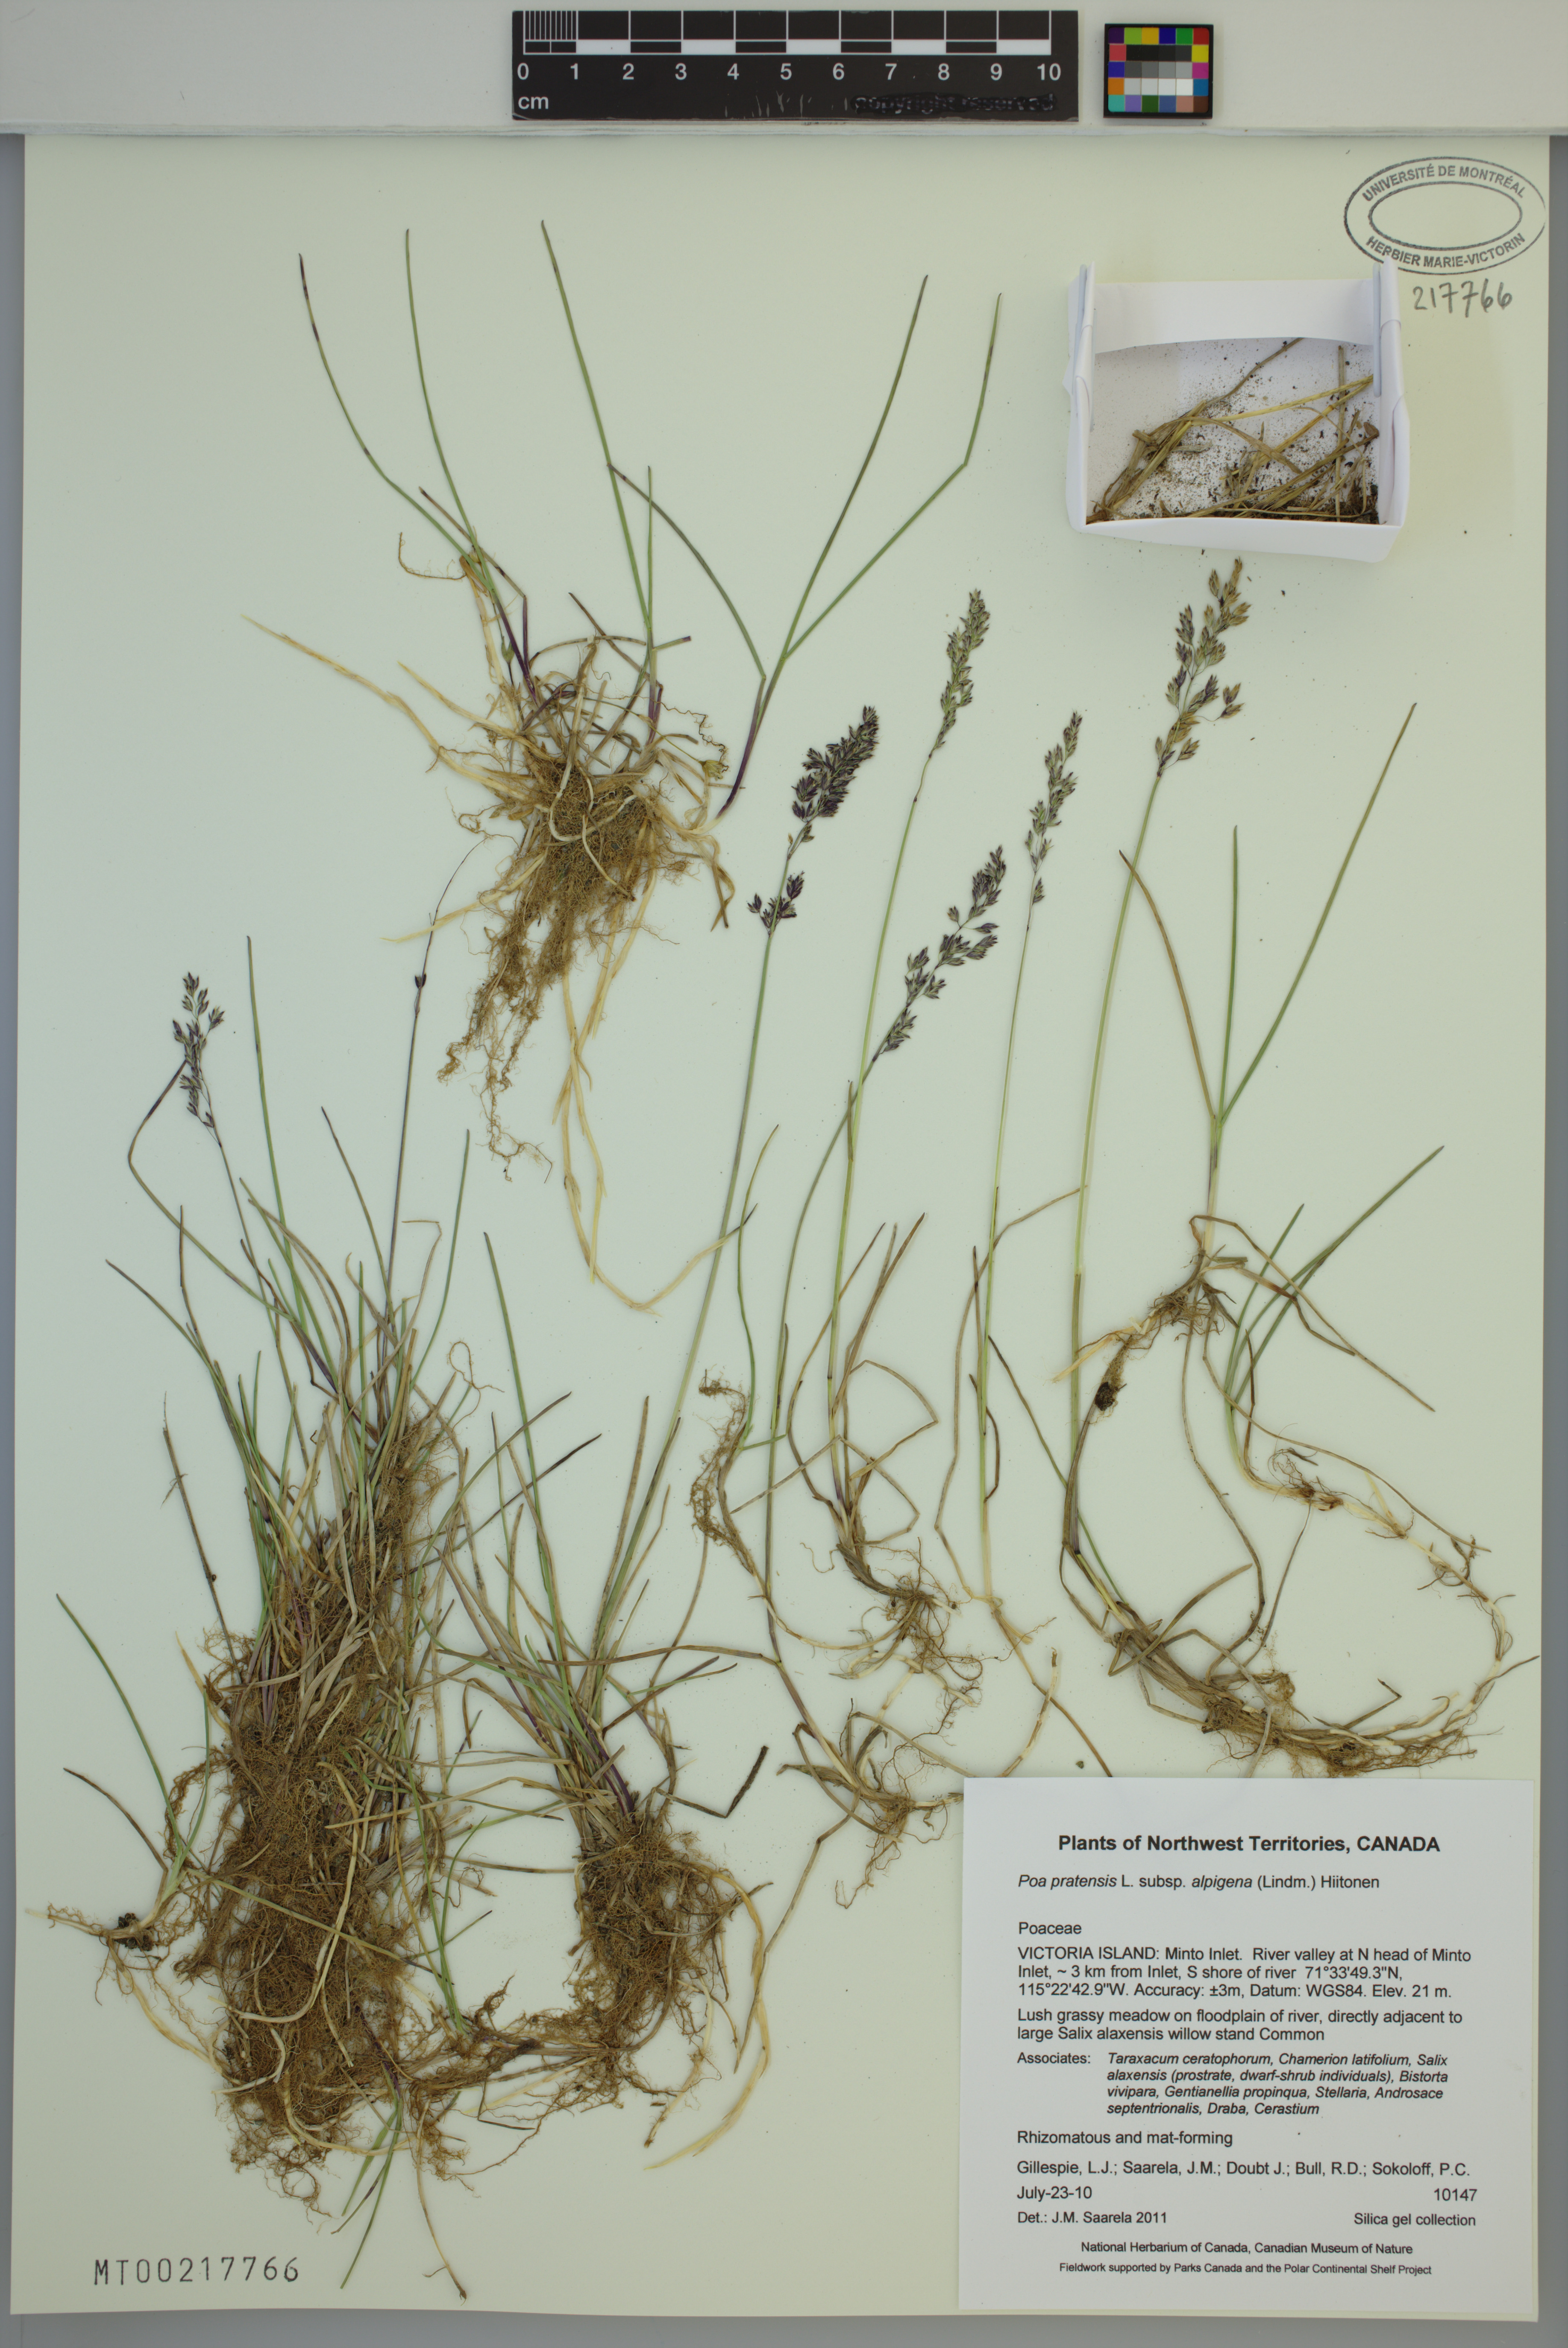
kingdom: Plantae
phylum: Tracheophyta
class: Liliopsida
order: Poales
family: Poaceae
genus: Poa
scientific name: Poa alpigena
